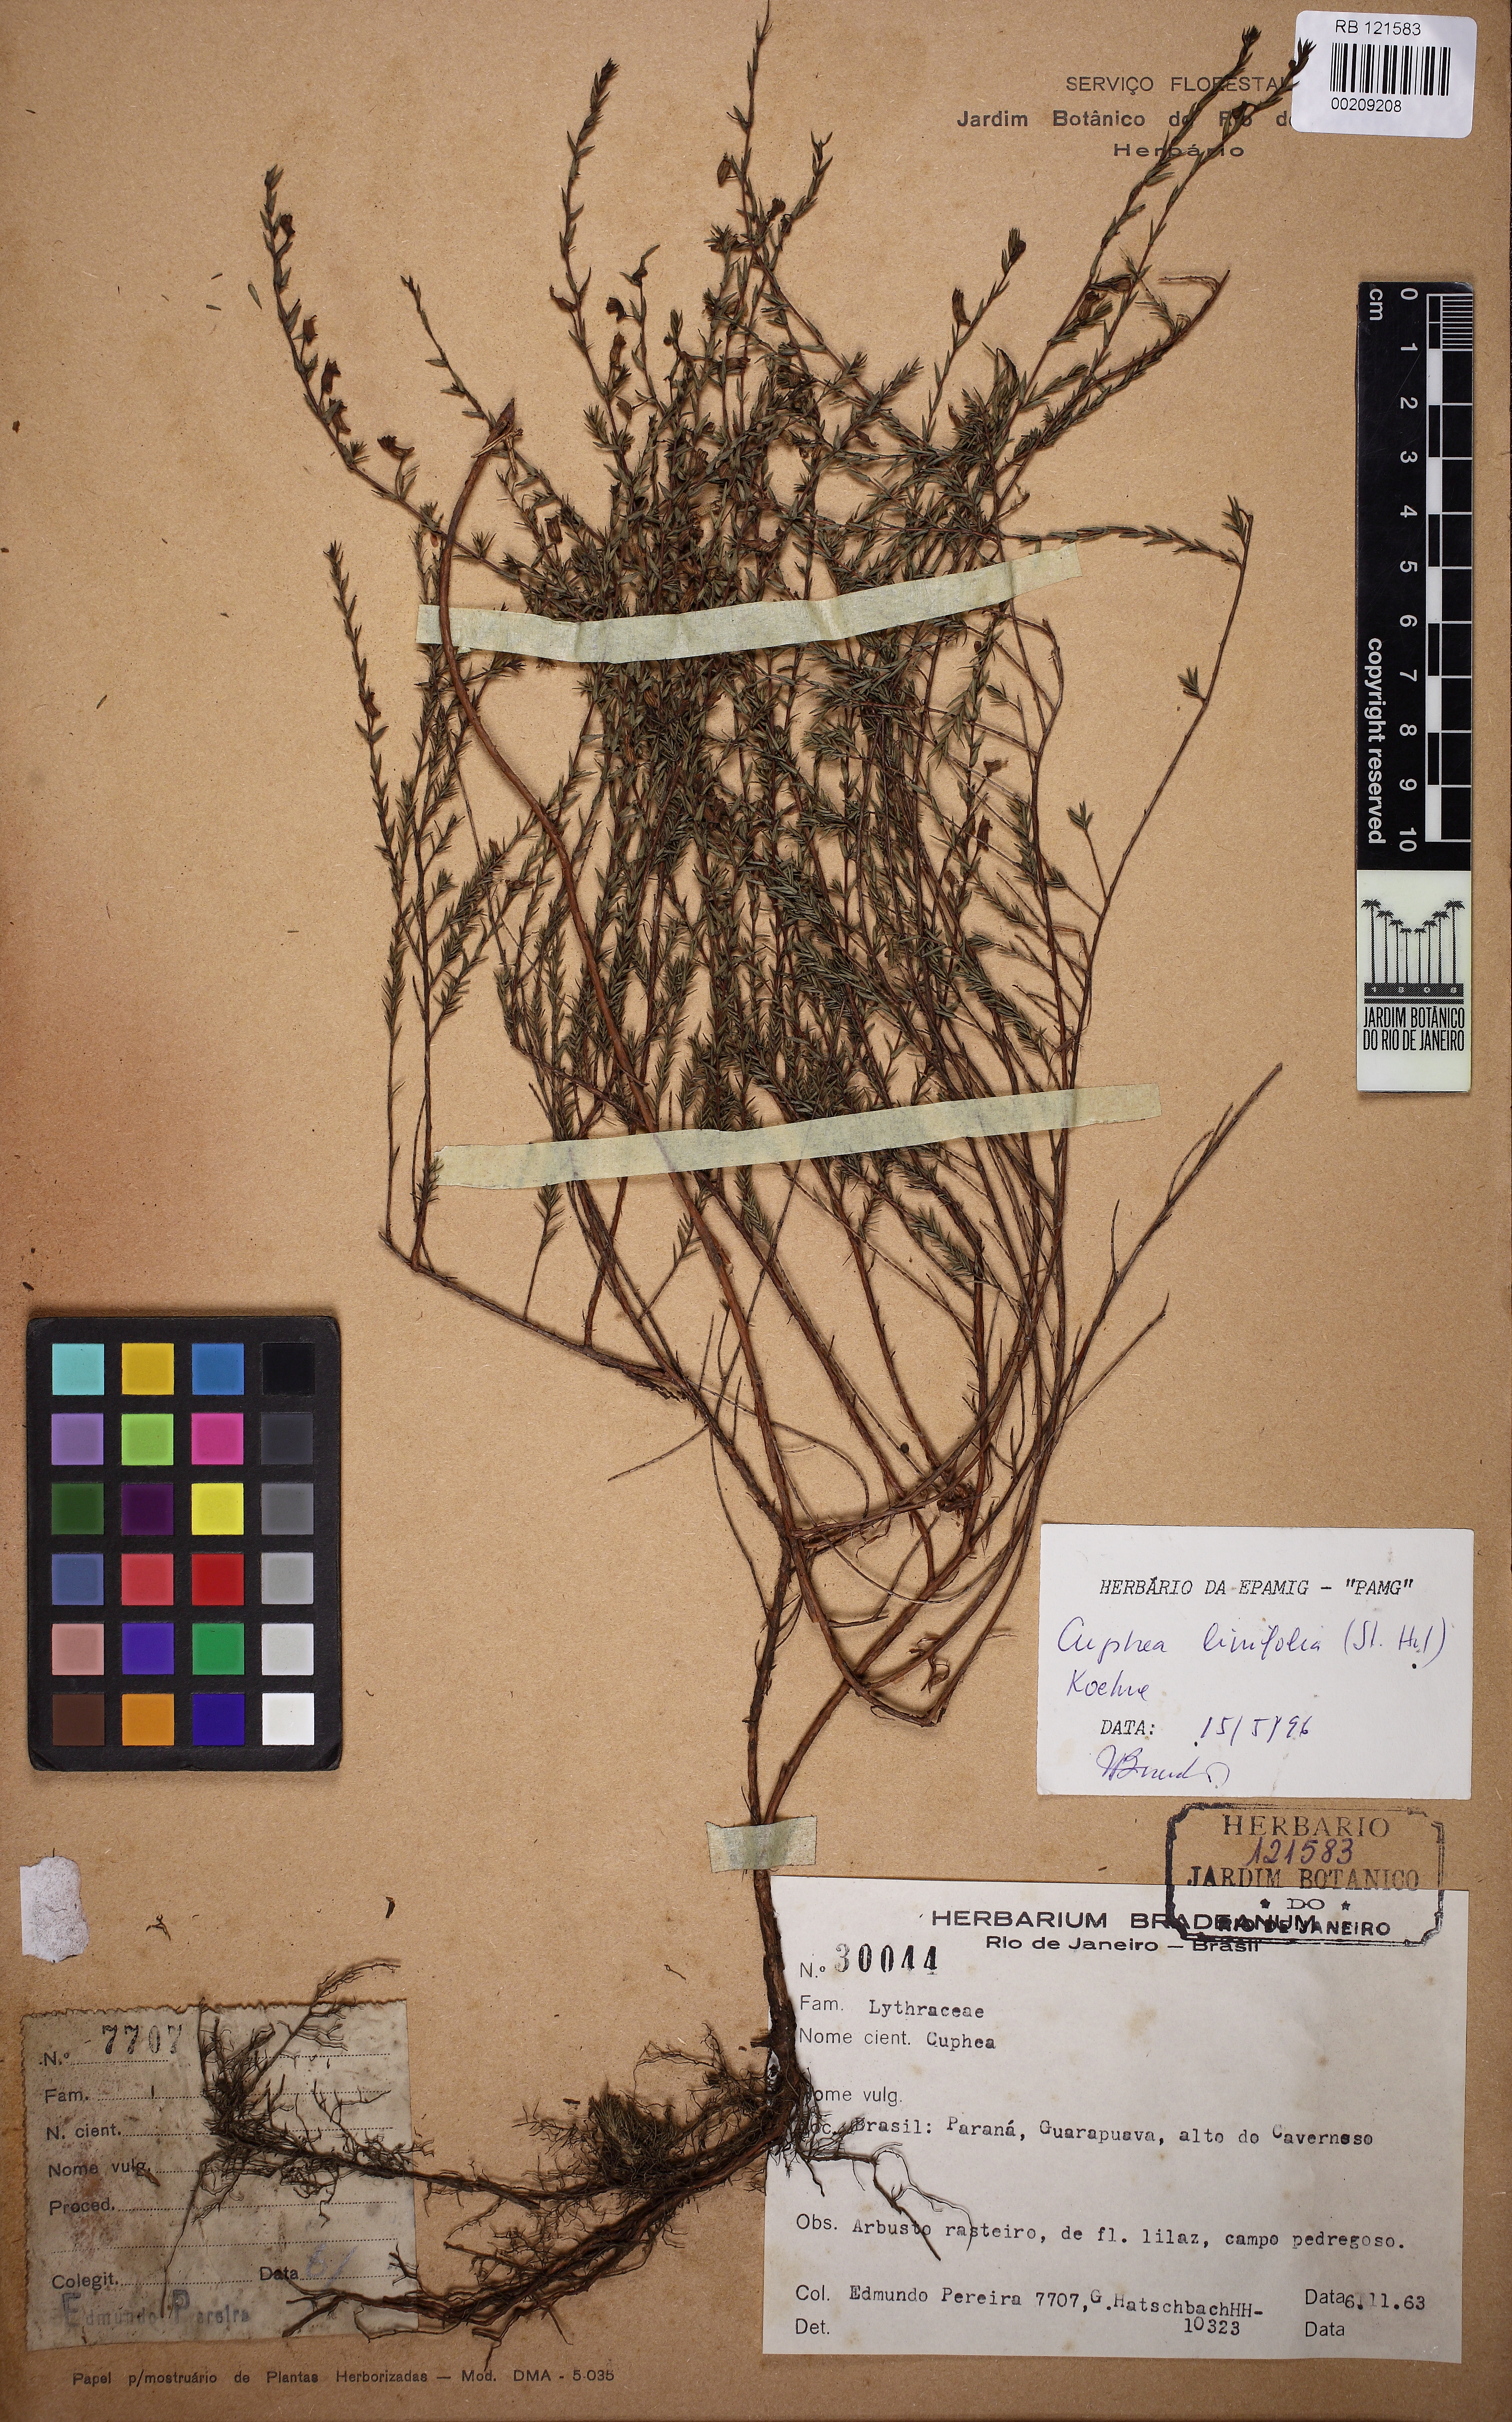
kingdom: Plantae
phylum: Tracheophyta
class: Magnoliopsida
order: Myrtales
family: Lythraceae
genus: Cuphea
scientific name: Cuphea linifolia
